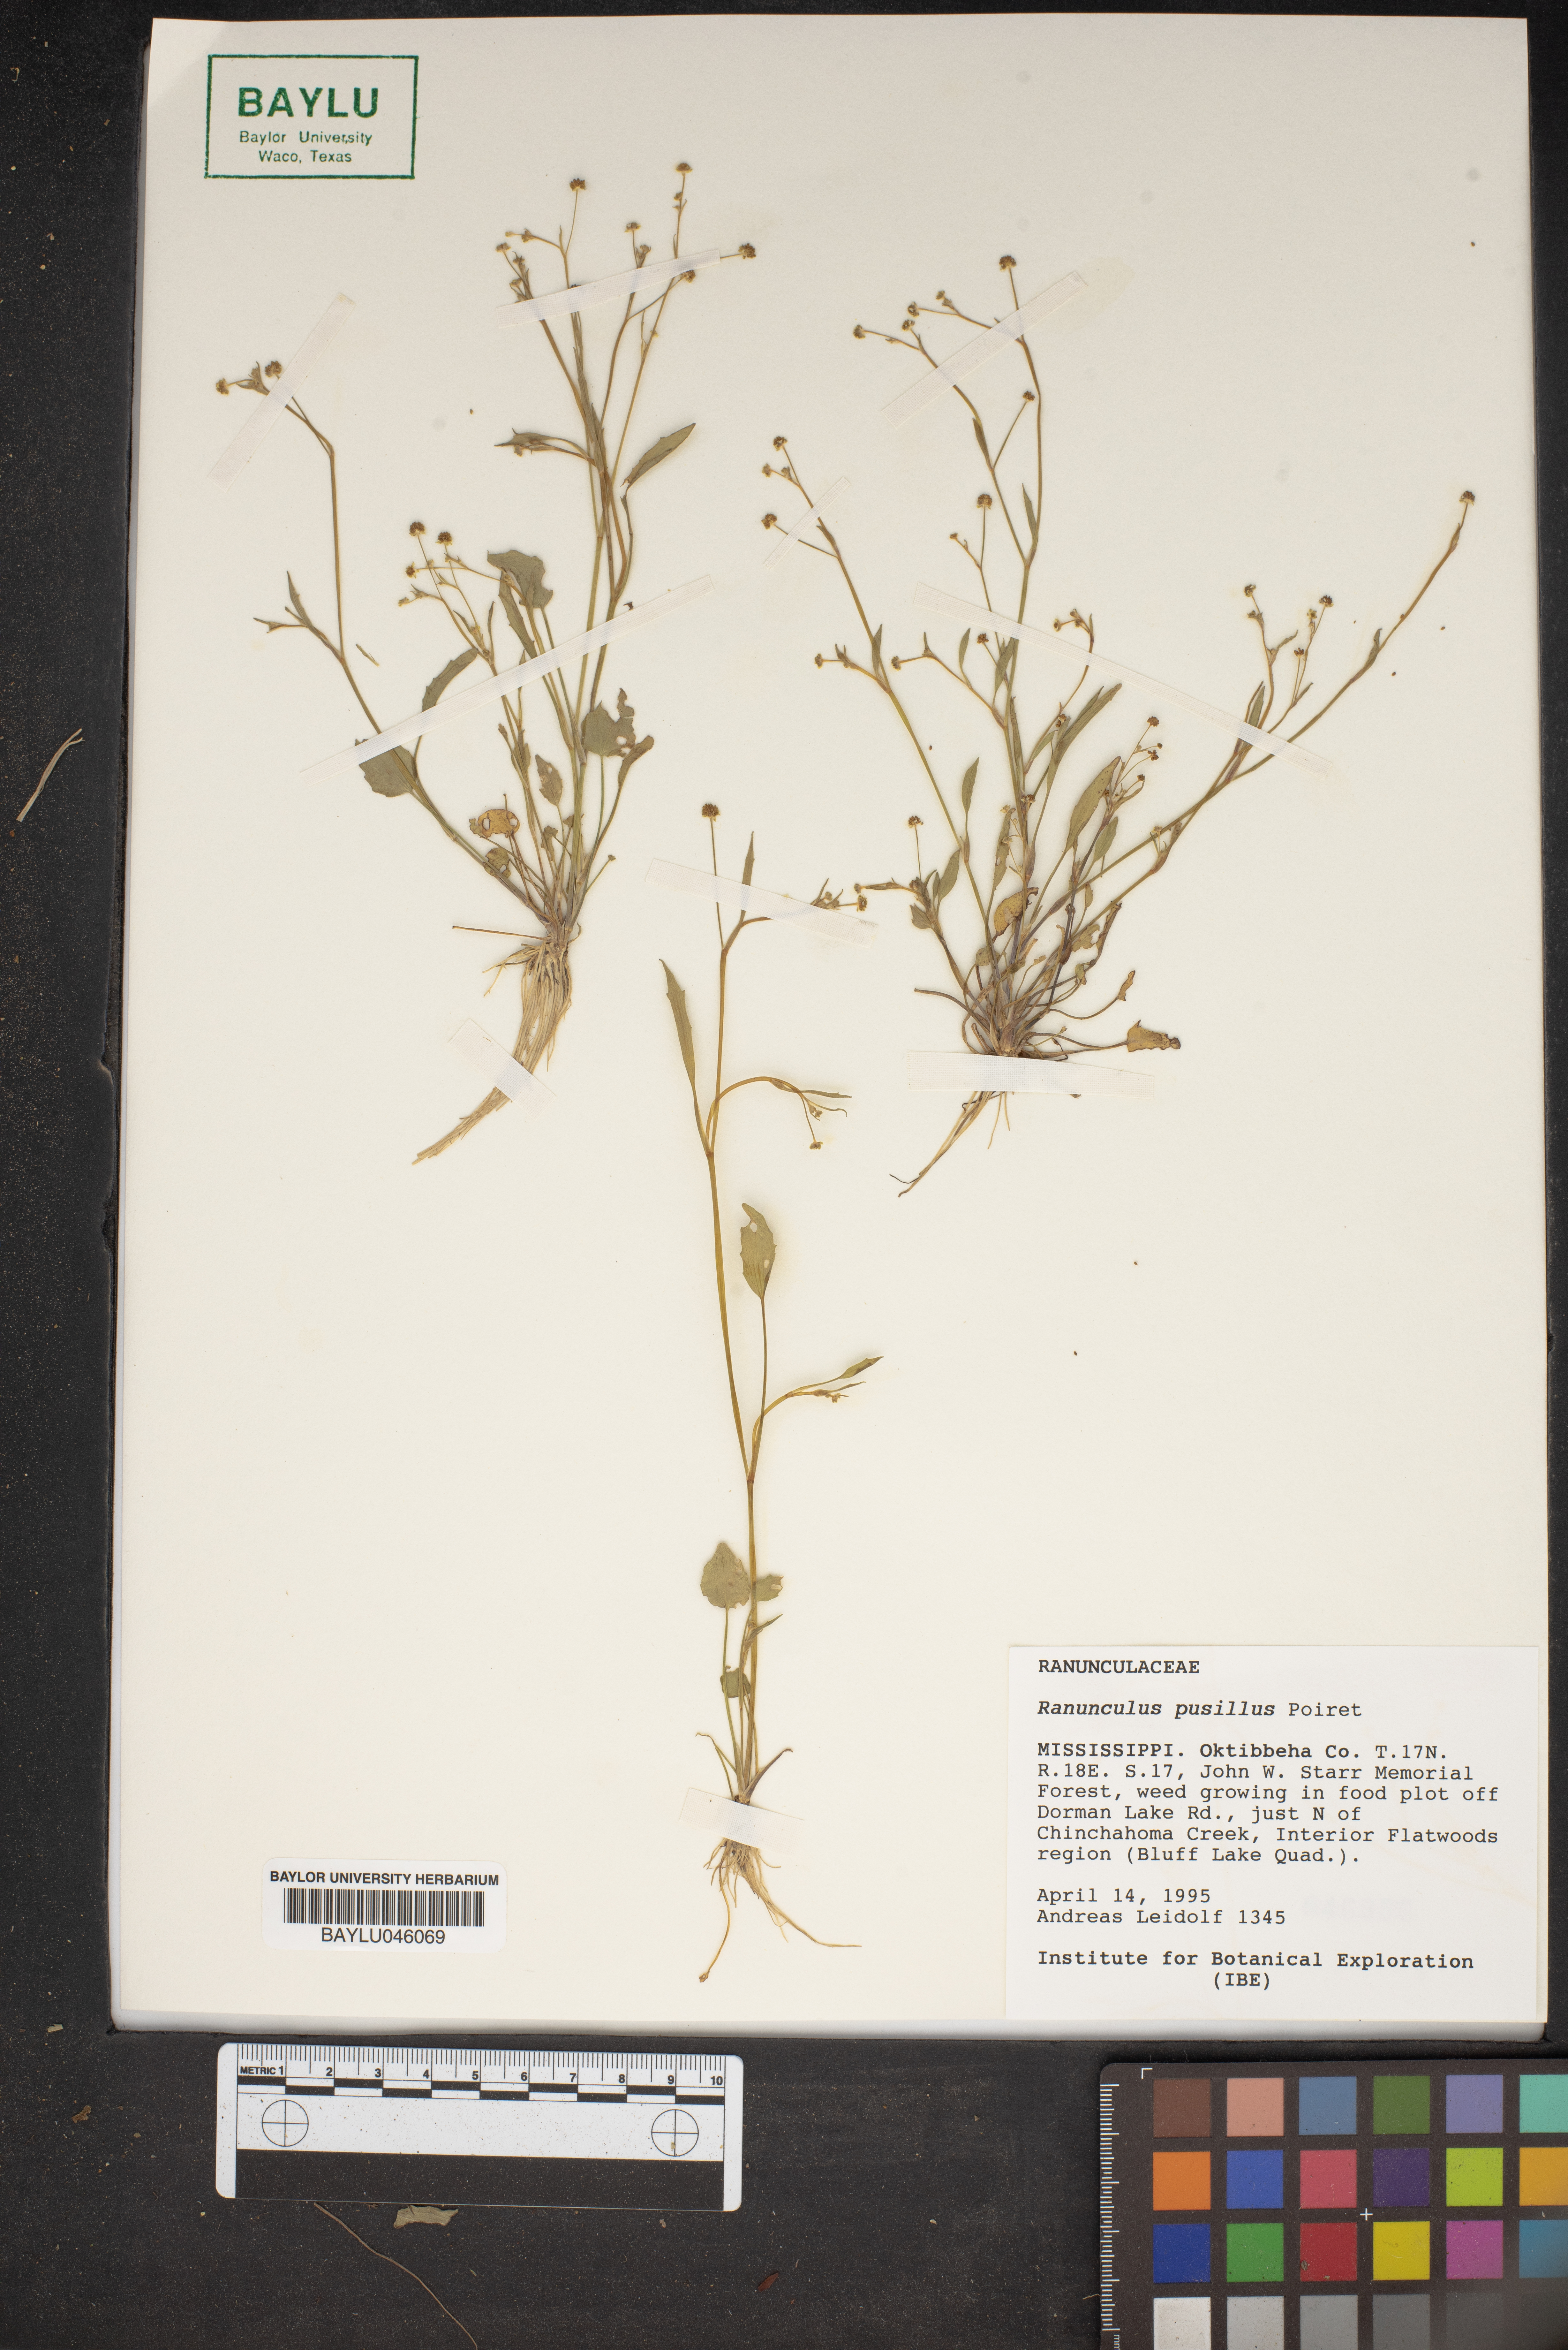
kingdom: Plantae
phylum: Tracheophyta
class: Magnoliopsida
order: Ranunculales
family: Ranunculaceae
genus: Ranunculus
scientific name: Ranunculus pusillus
